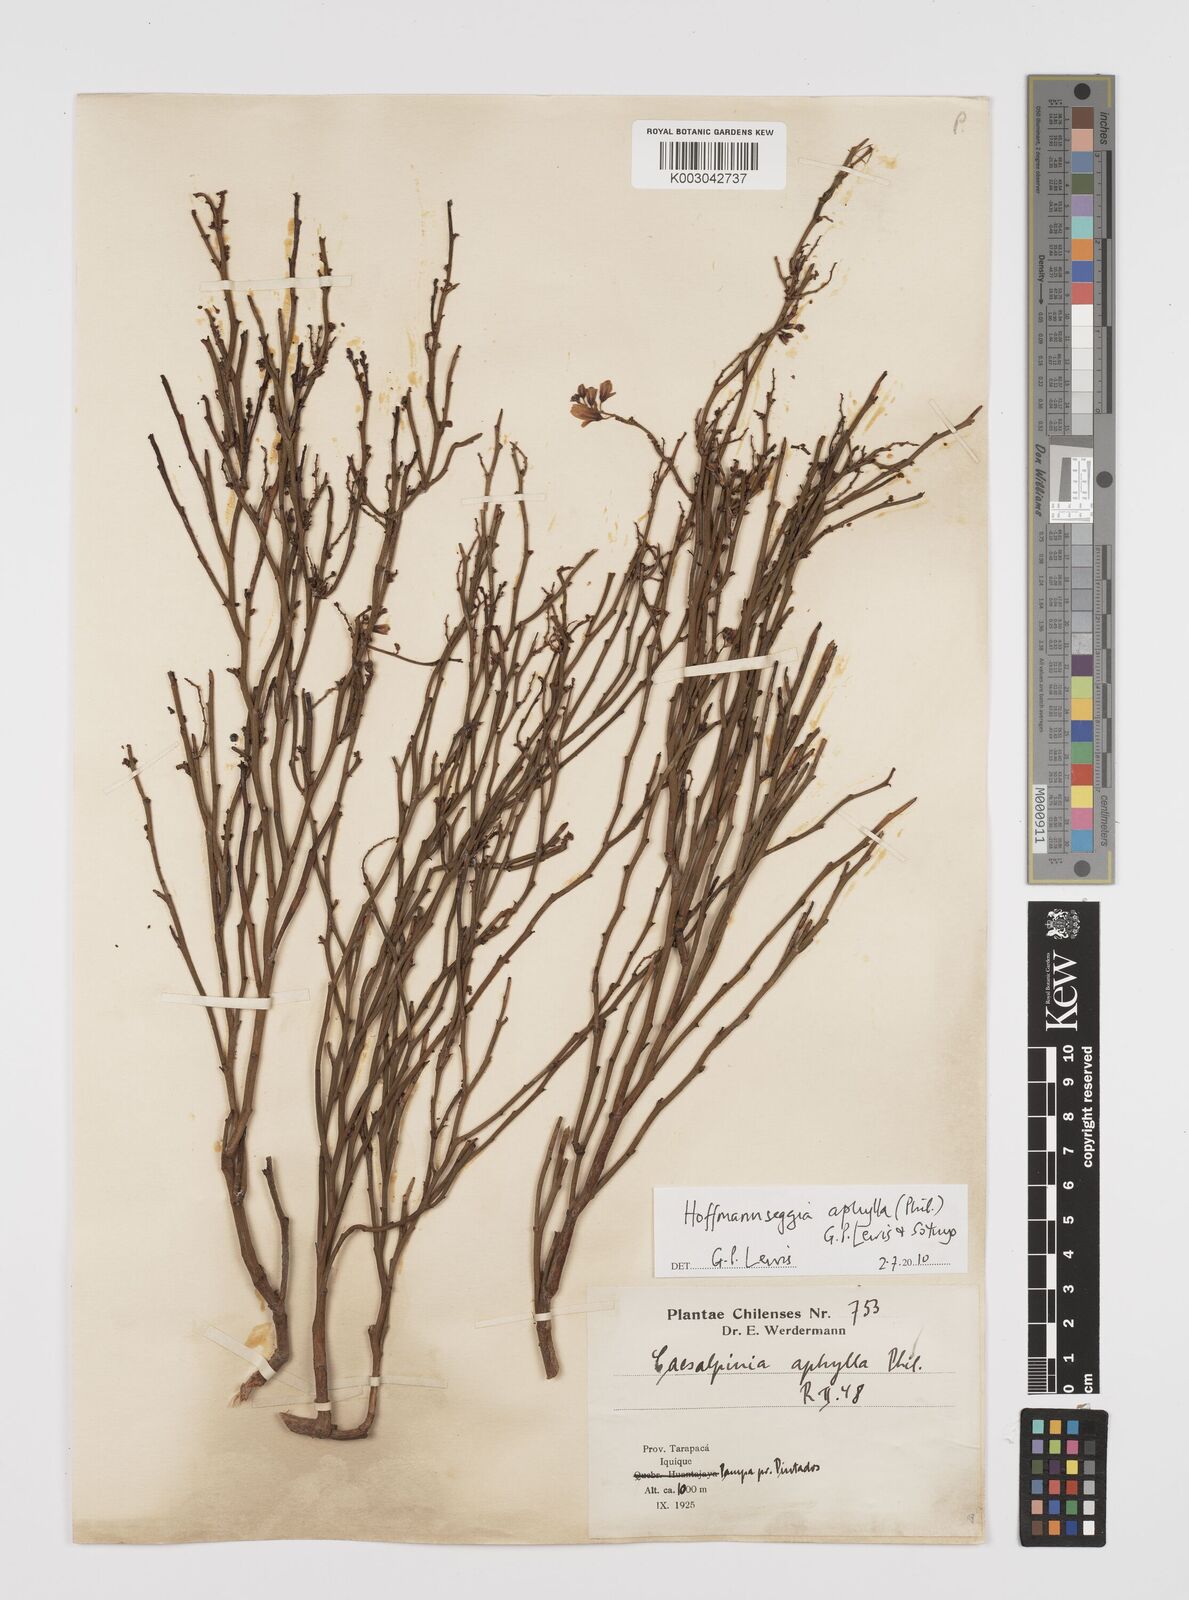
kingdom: Plantae
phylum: Tracheophyta
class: Magnoliopsida
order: Fabales
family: Fabaceae
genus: Hoffmannseggia
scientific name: Hoffmannseggia aphylla
